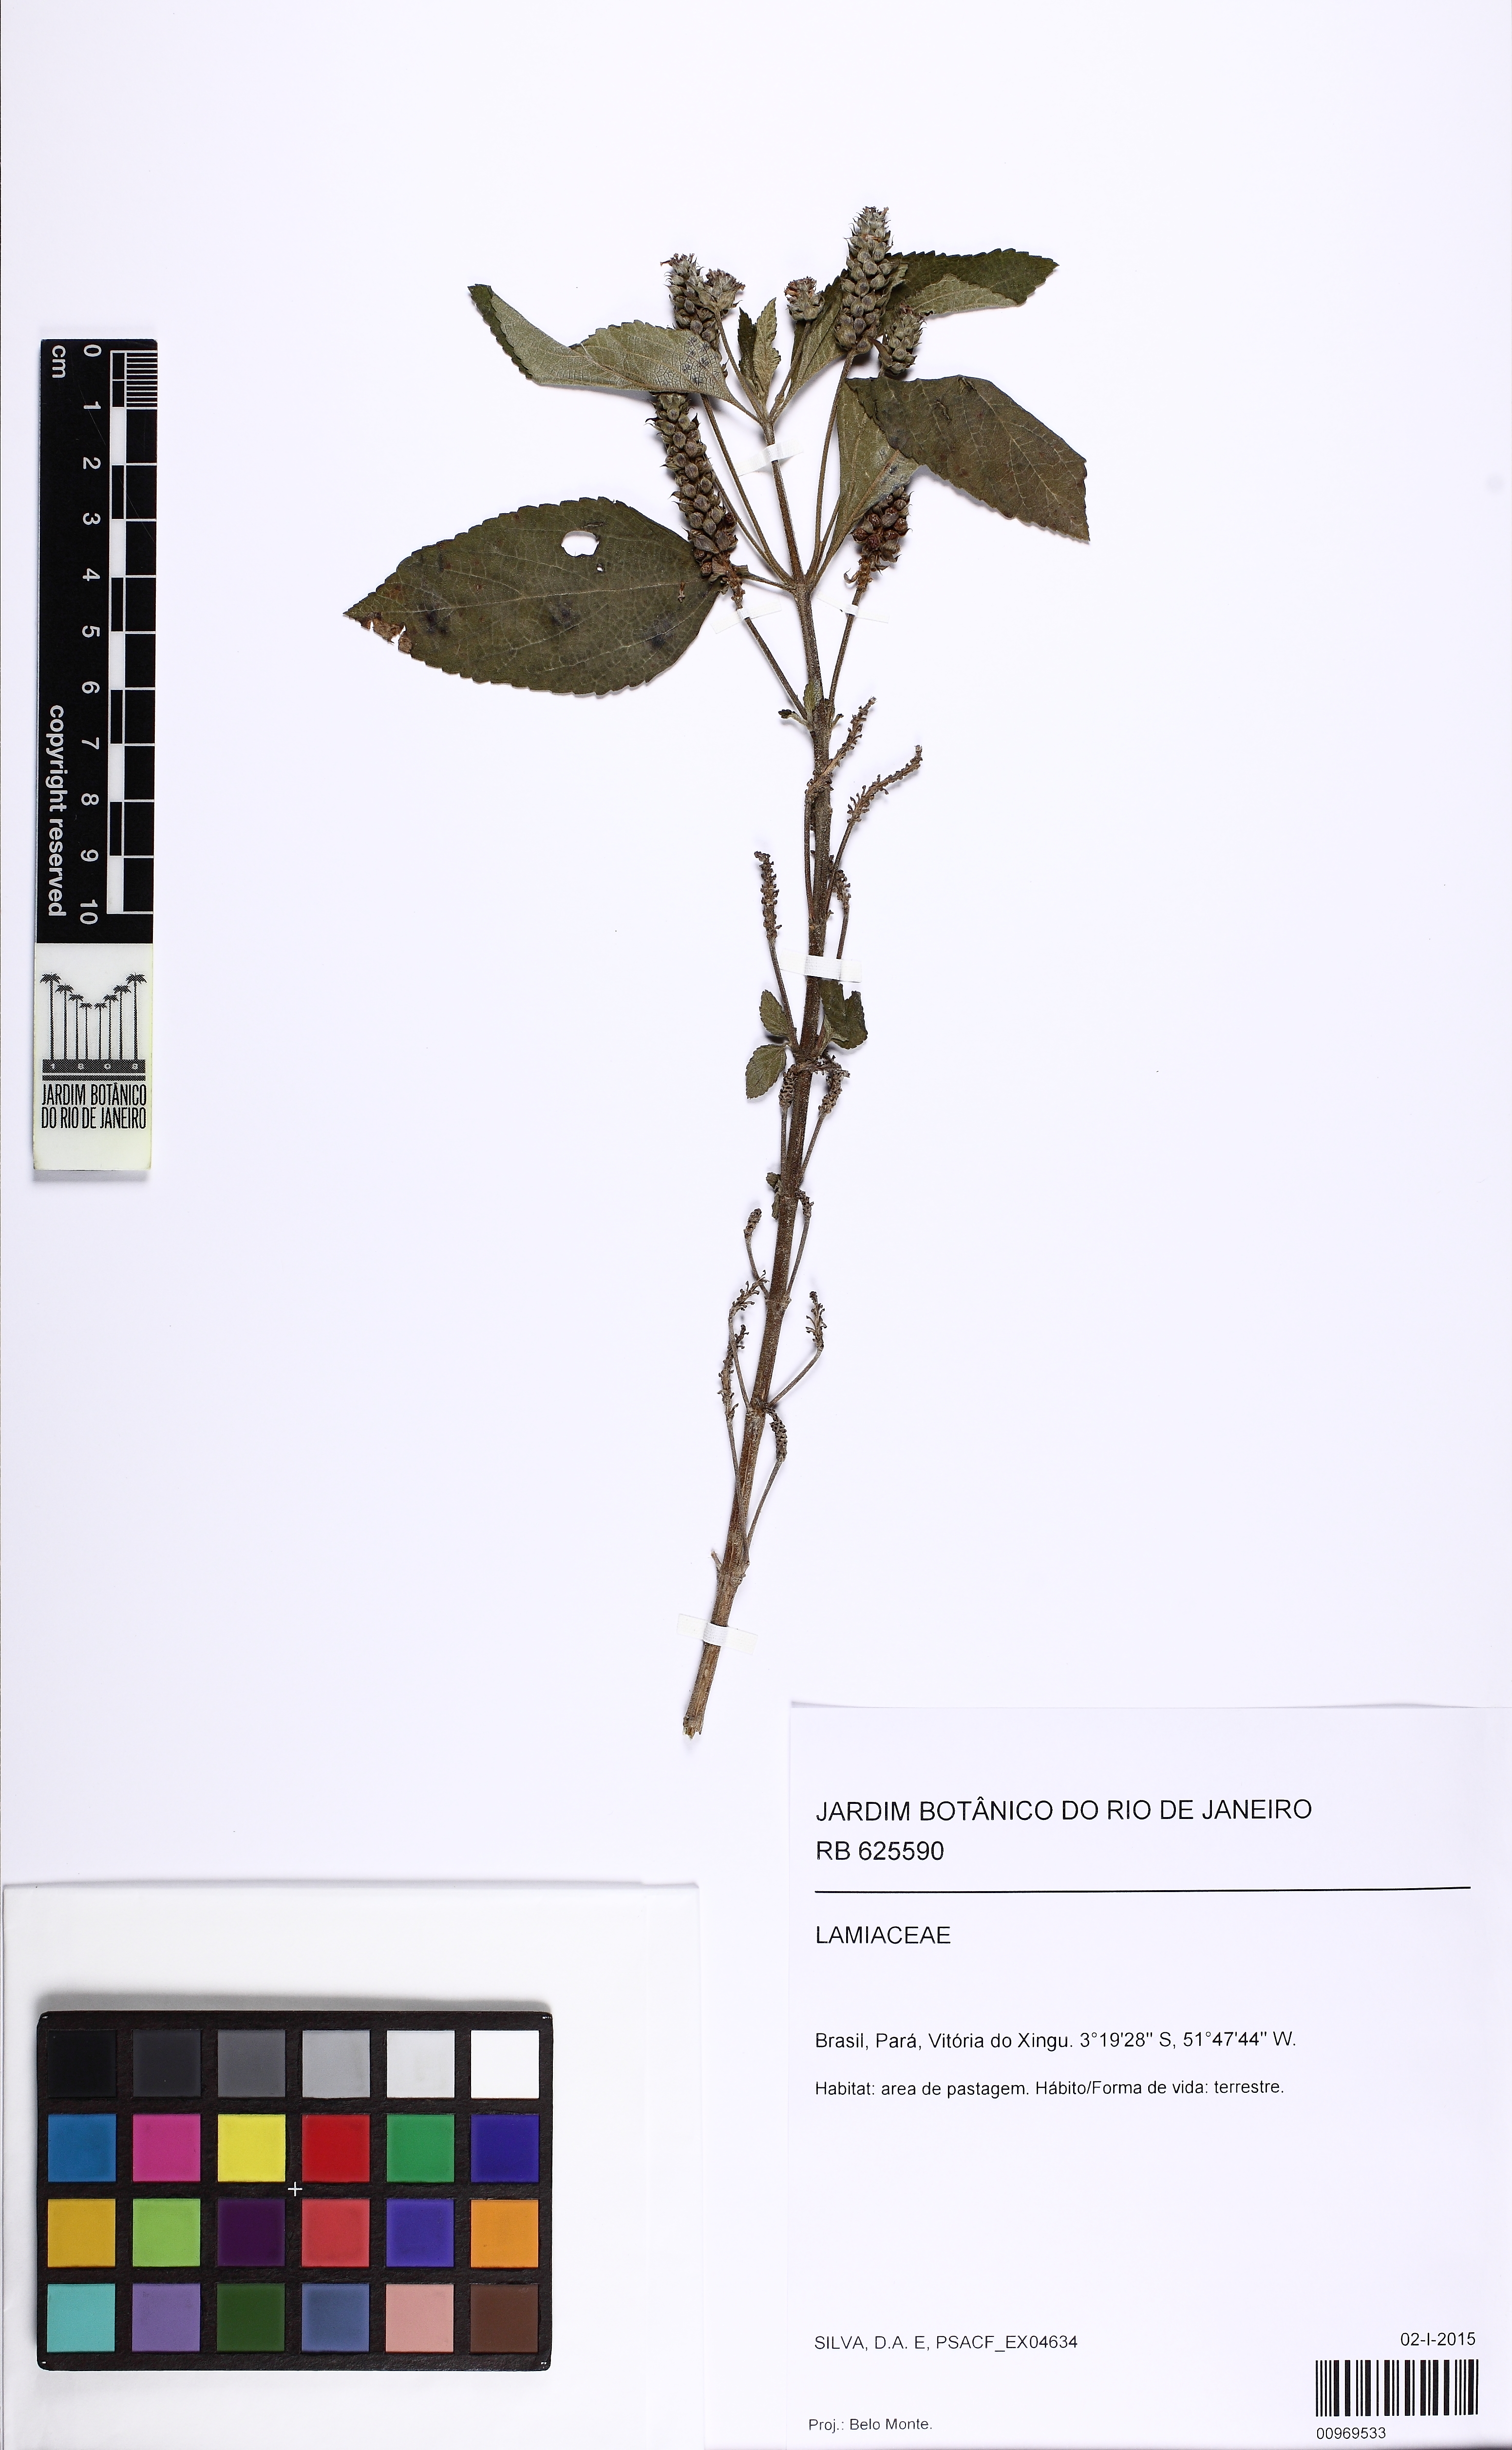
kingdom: Plantae
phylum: Tracheophyta
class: Magnoliopsida
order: Lamiales
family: Verbenaceae
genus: Lippia
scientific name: Lippia
